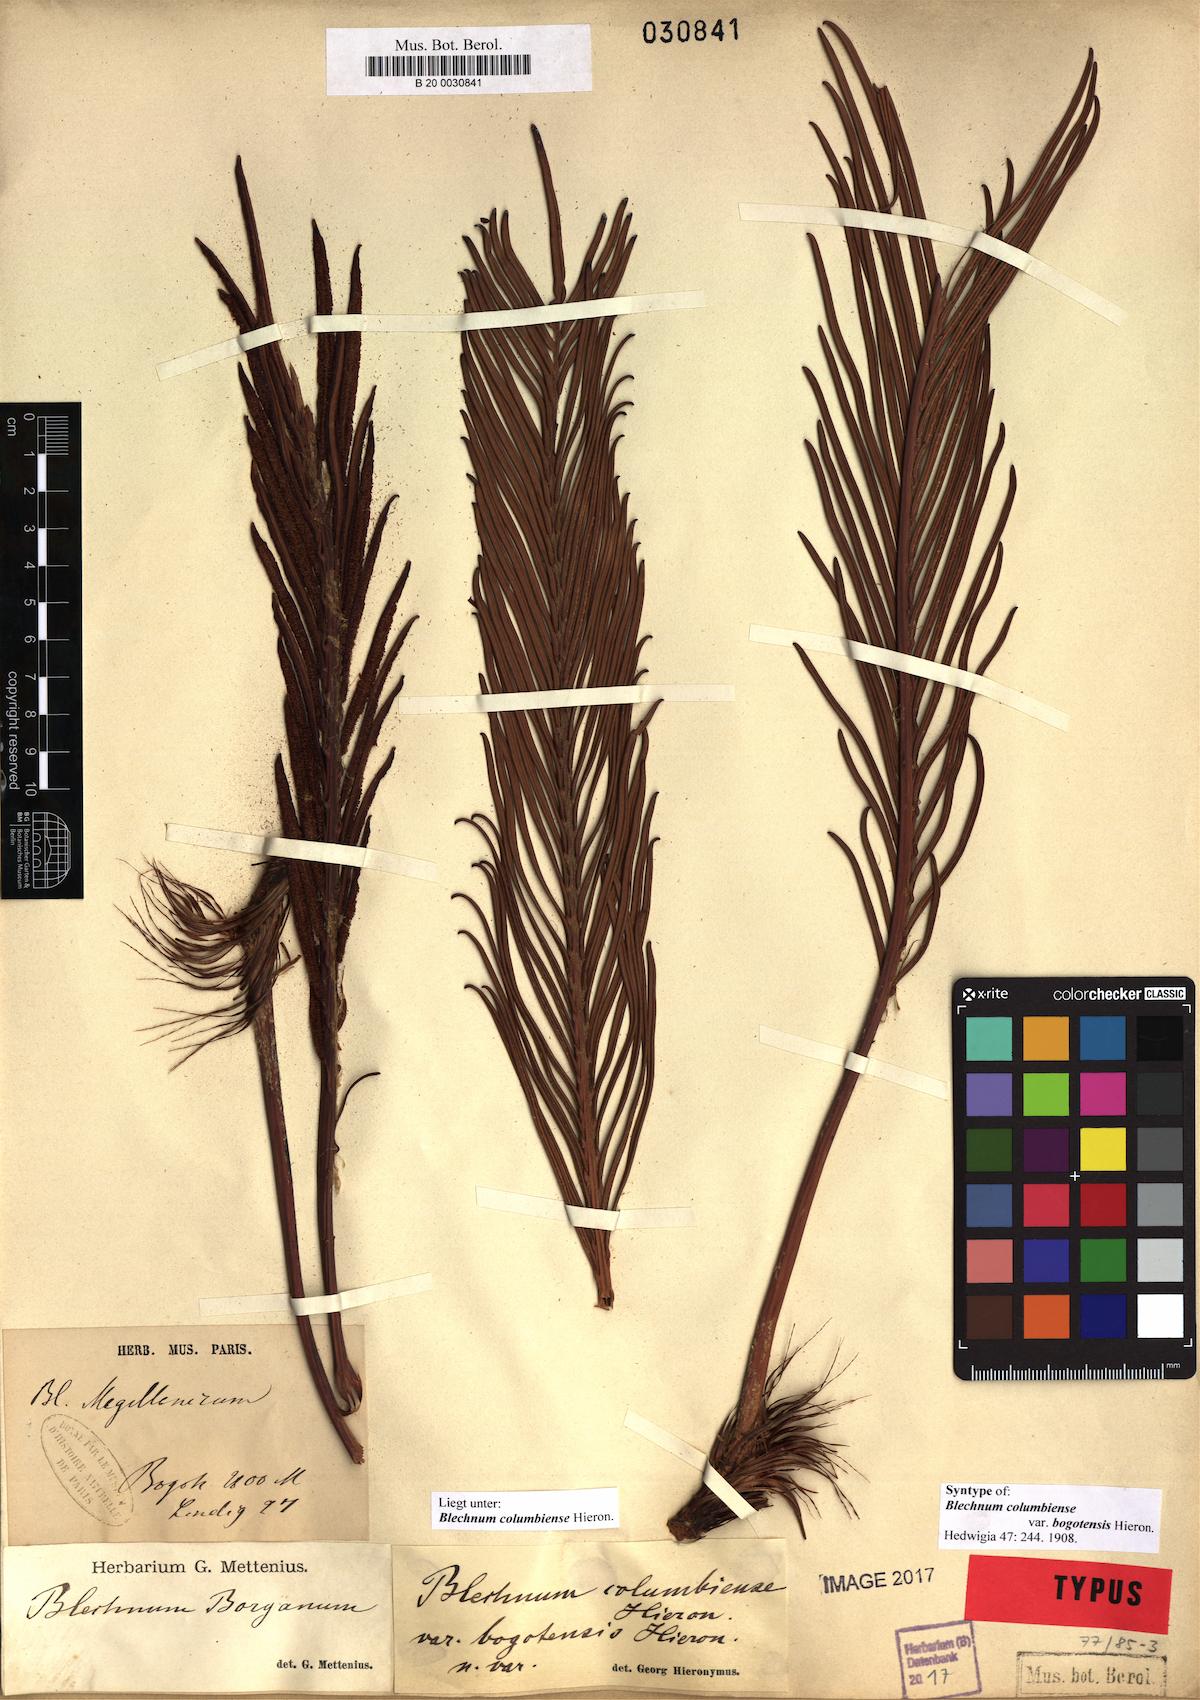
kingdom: Plantae
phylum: Tracheophyta
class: Polypodiopsida
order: Polypodiales
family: Blechnaceae
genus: Lomariocycas
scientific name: Lomariocycas columbiensis
